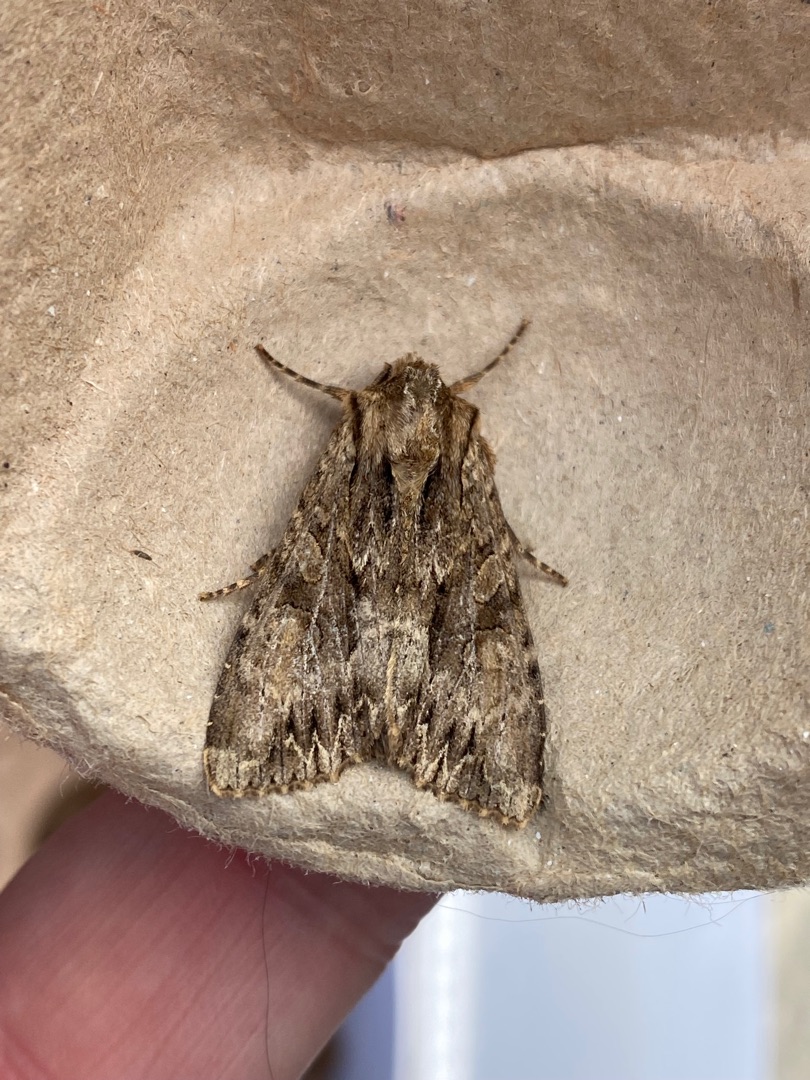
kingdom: Animalia
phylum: Arthropoda
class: Insecta
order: Lepidoptera
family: Noctuidae
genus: Apamea
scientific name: Apamea monoglypha
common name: Jordugle
